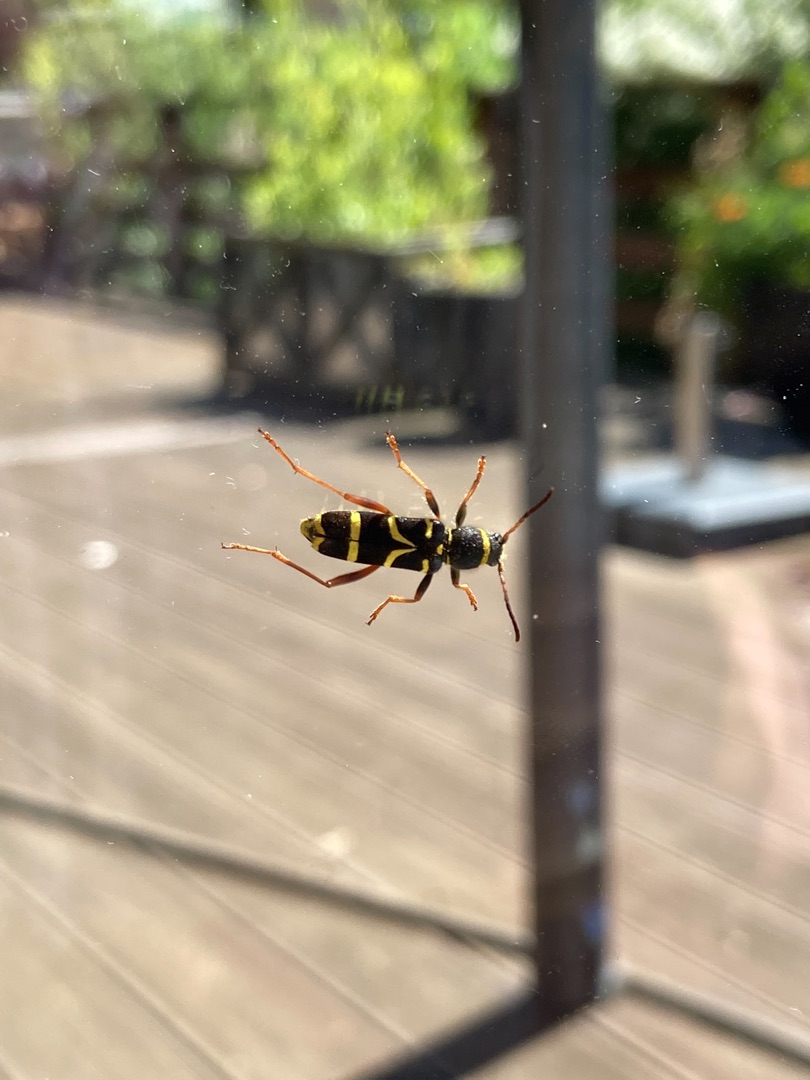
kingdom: Animalia
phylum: Arthropoda
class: Insecta
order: Coleoptera
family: Cerambycidae
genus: Clytus
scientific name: Clytus arietis
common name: Lille hvepsebuk
